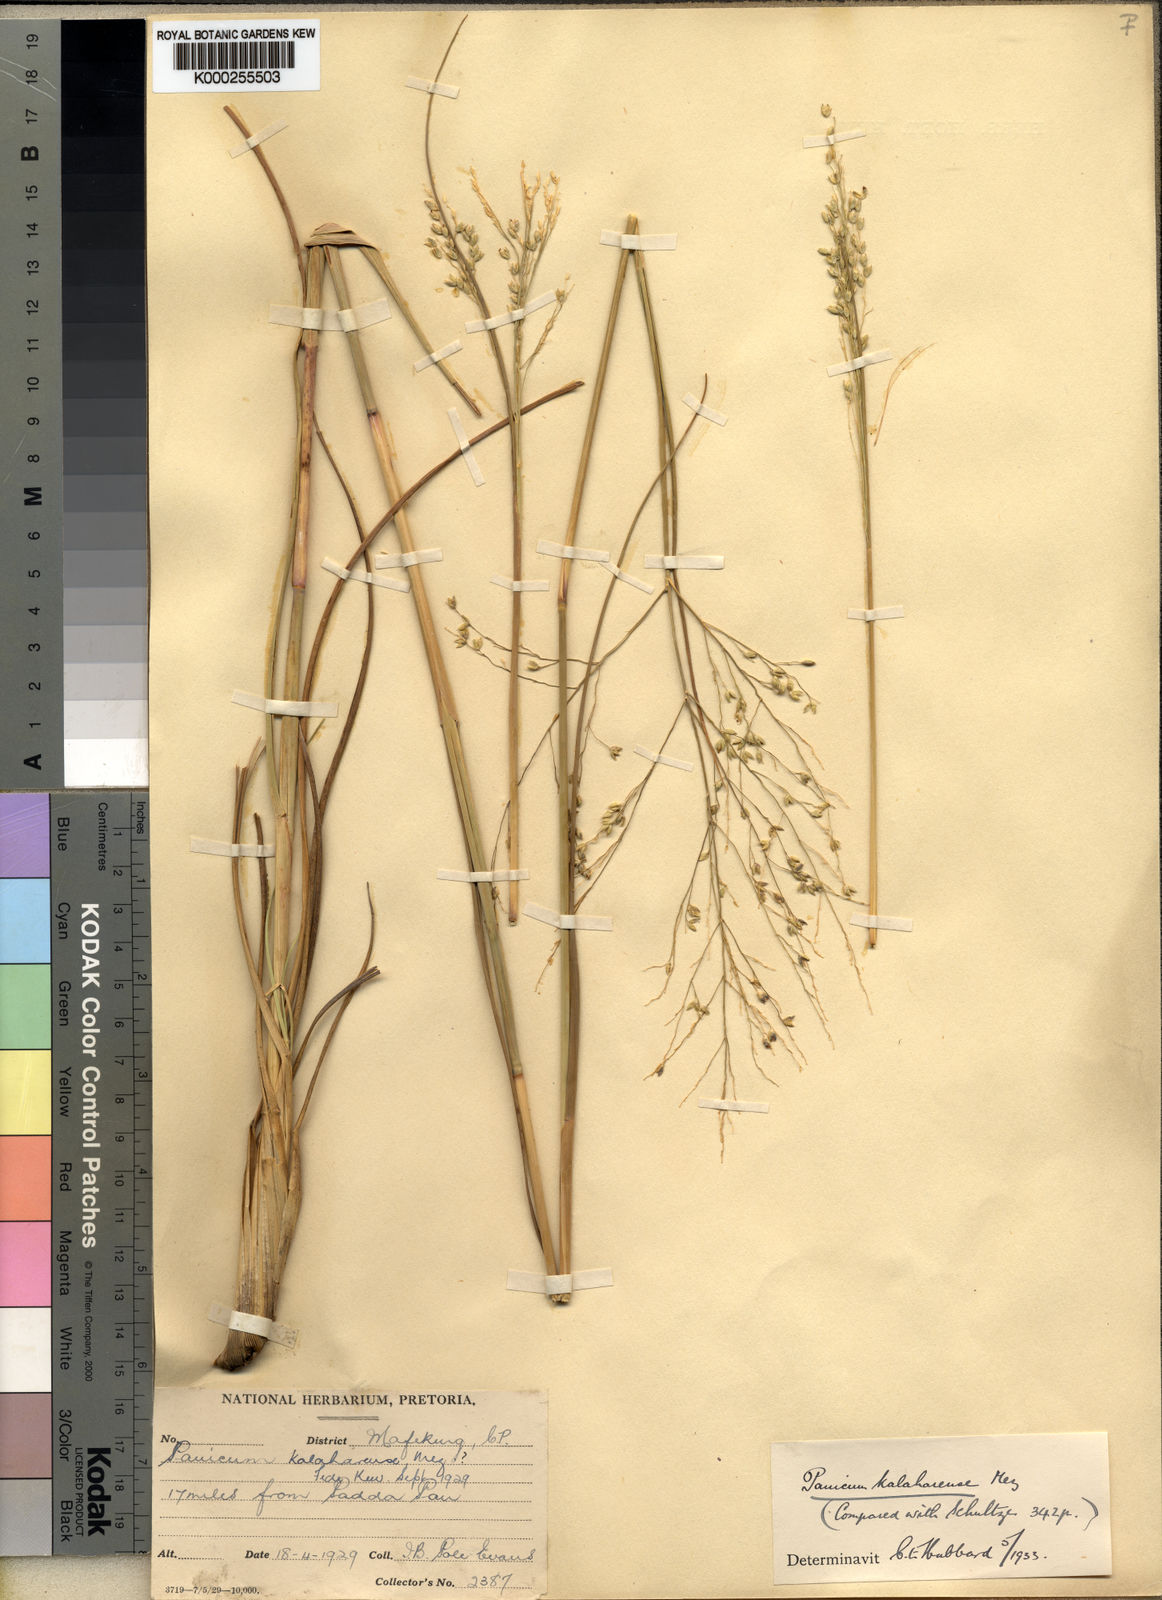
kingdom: Plantae
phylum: Tracheophyta
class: Liliopsida
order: Poales
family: Poaceae
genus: Panicum
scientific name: Panicum kalaharense
